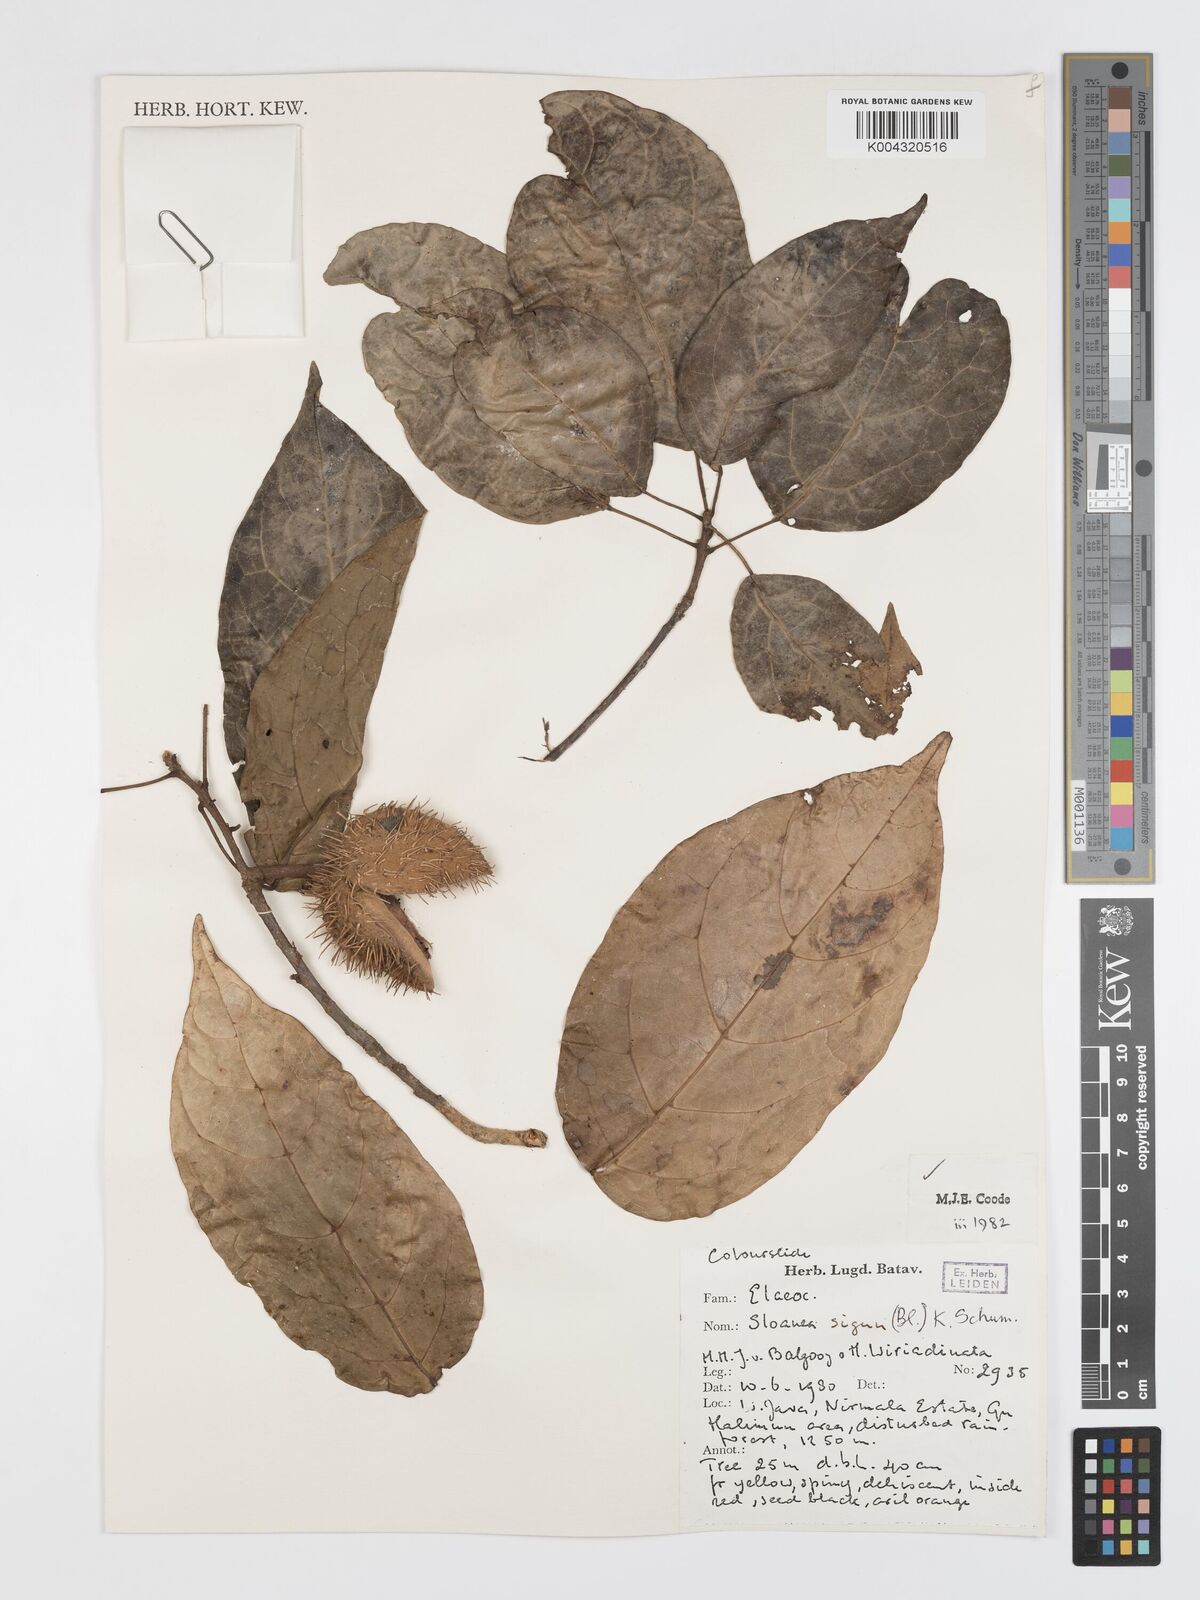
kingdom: Plantae
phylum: Tracheophyta
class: Magnoliopsida
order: Oxalidales
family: Elaeocarpaceae
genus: Sloanea
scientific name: Sloanea sigun
